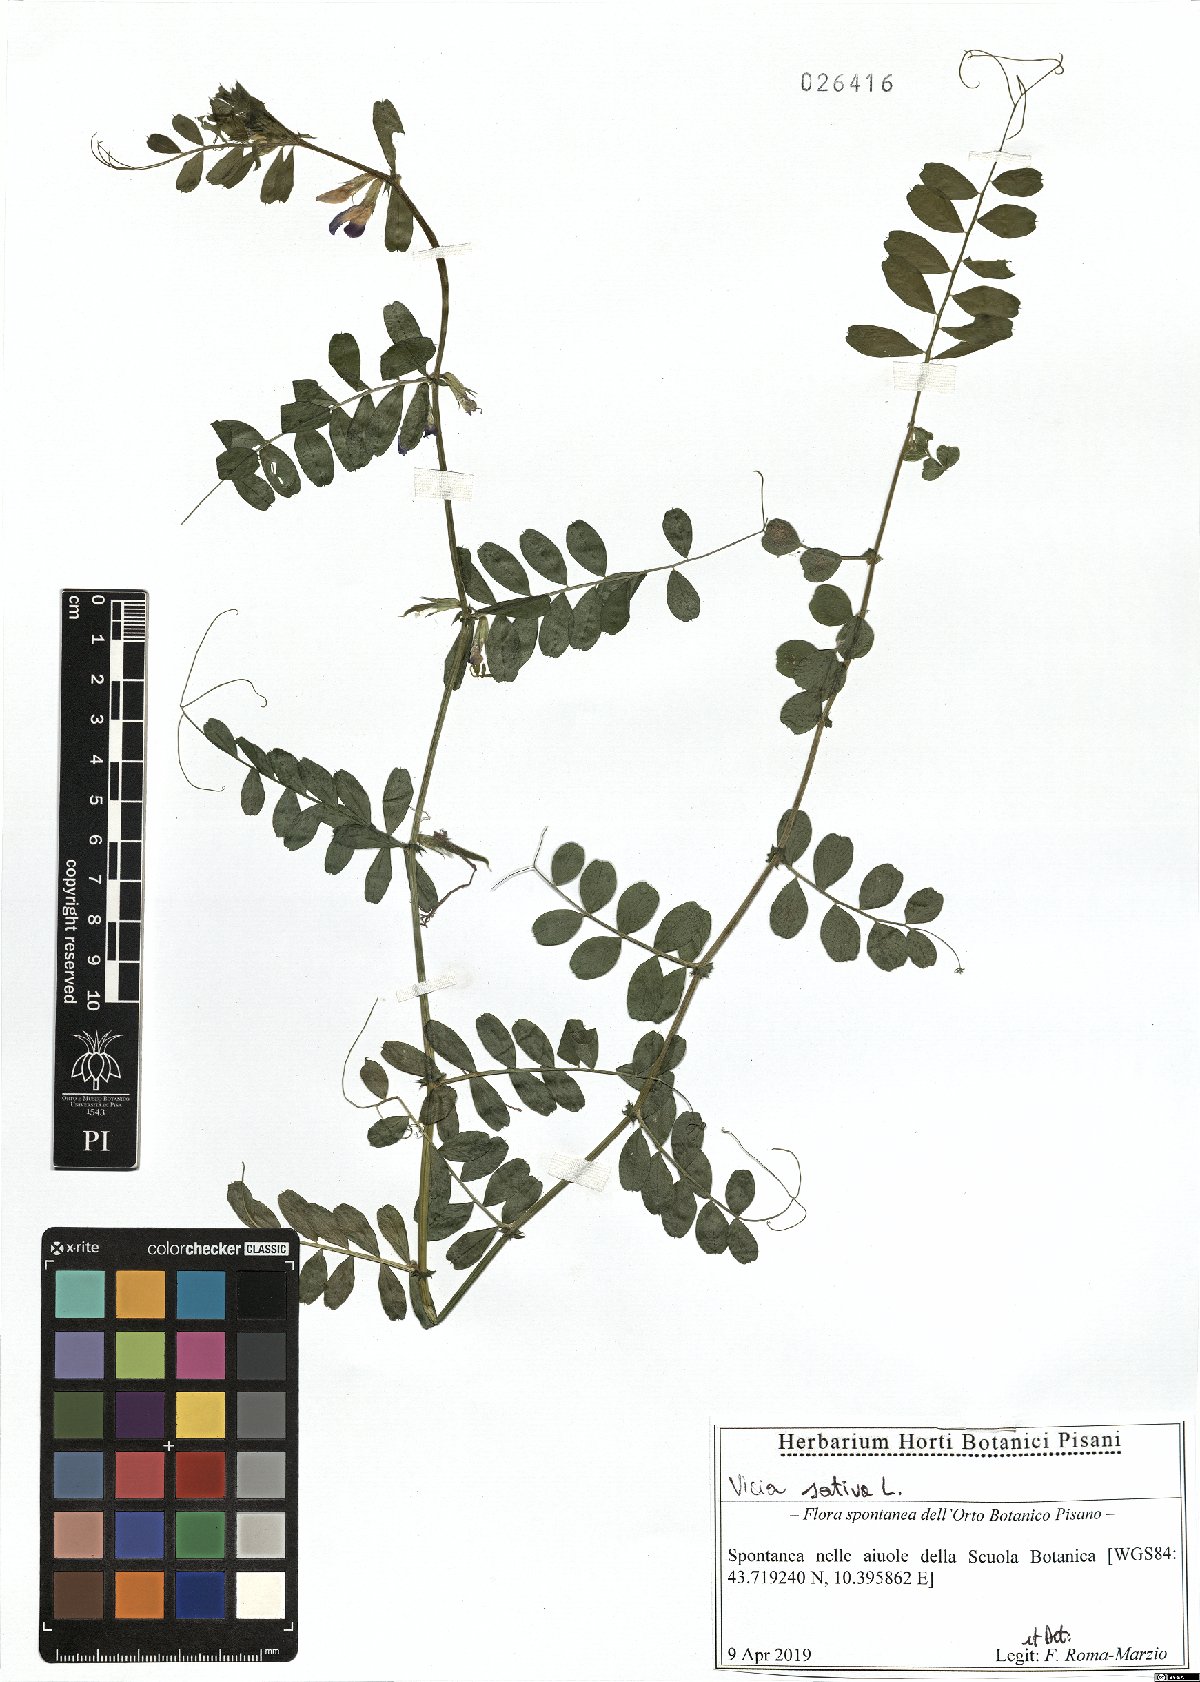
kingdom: Plantae
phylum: Tracheophyta
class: Magnoliopsida
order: Fabales
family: Fabaceae
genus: Vicia
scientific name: Vicia sativa
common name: Garden vetch
